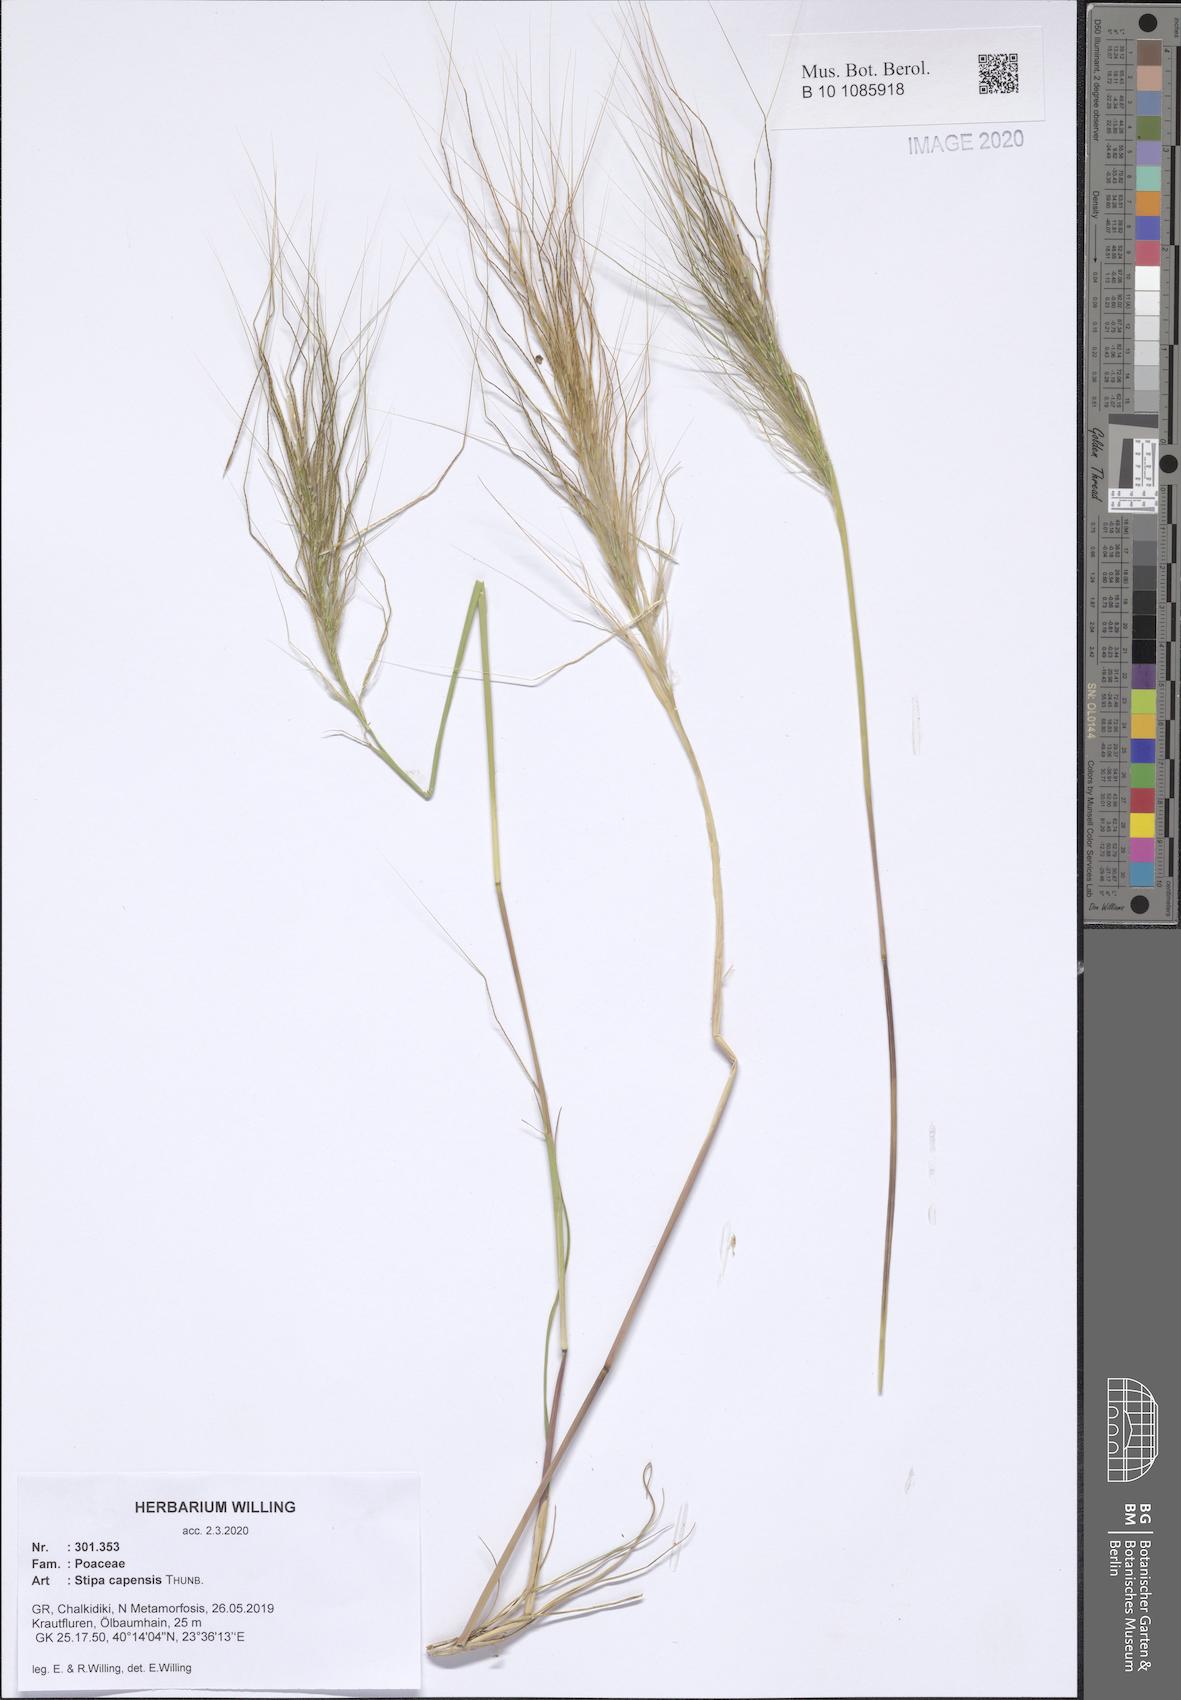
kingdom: Plantae
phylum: Tracheophyta
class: Liliopsida
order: Poales
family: Poaceae
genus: Stipellula
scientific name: Stipellula capensis
